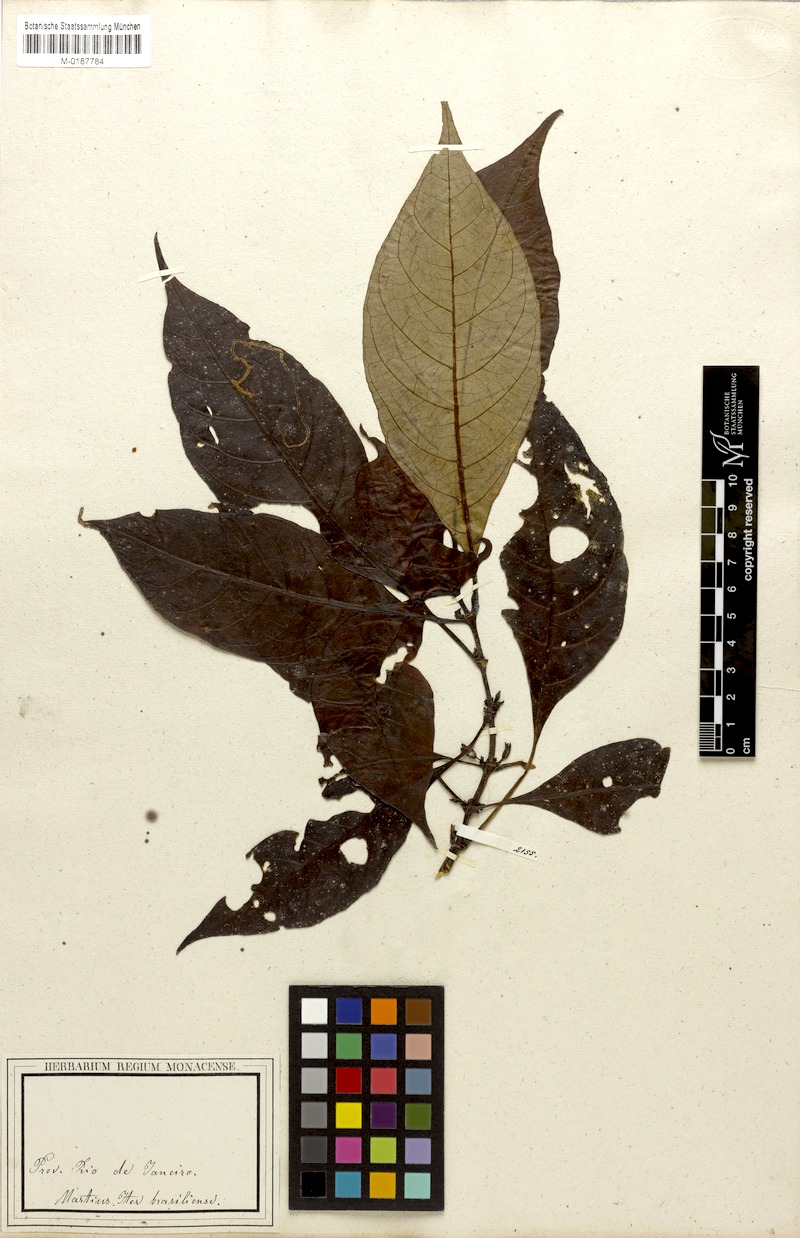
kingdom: Plantae
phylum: Tracheophyta
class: Magnoliopsida
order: Gentianales
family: Rubiaceae
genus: Hoffmannia
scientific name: Hoffmannia peckii
